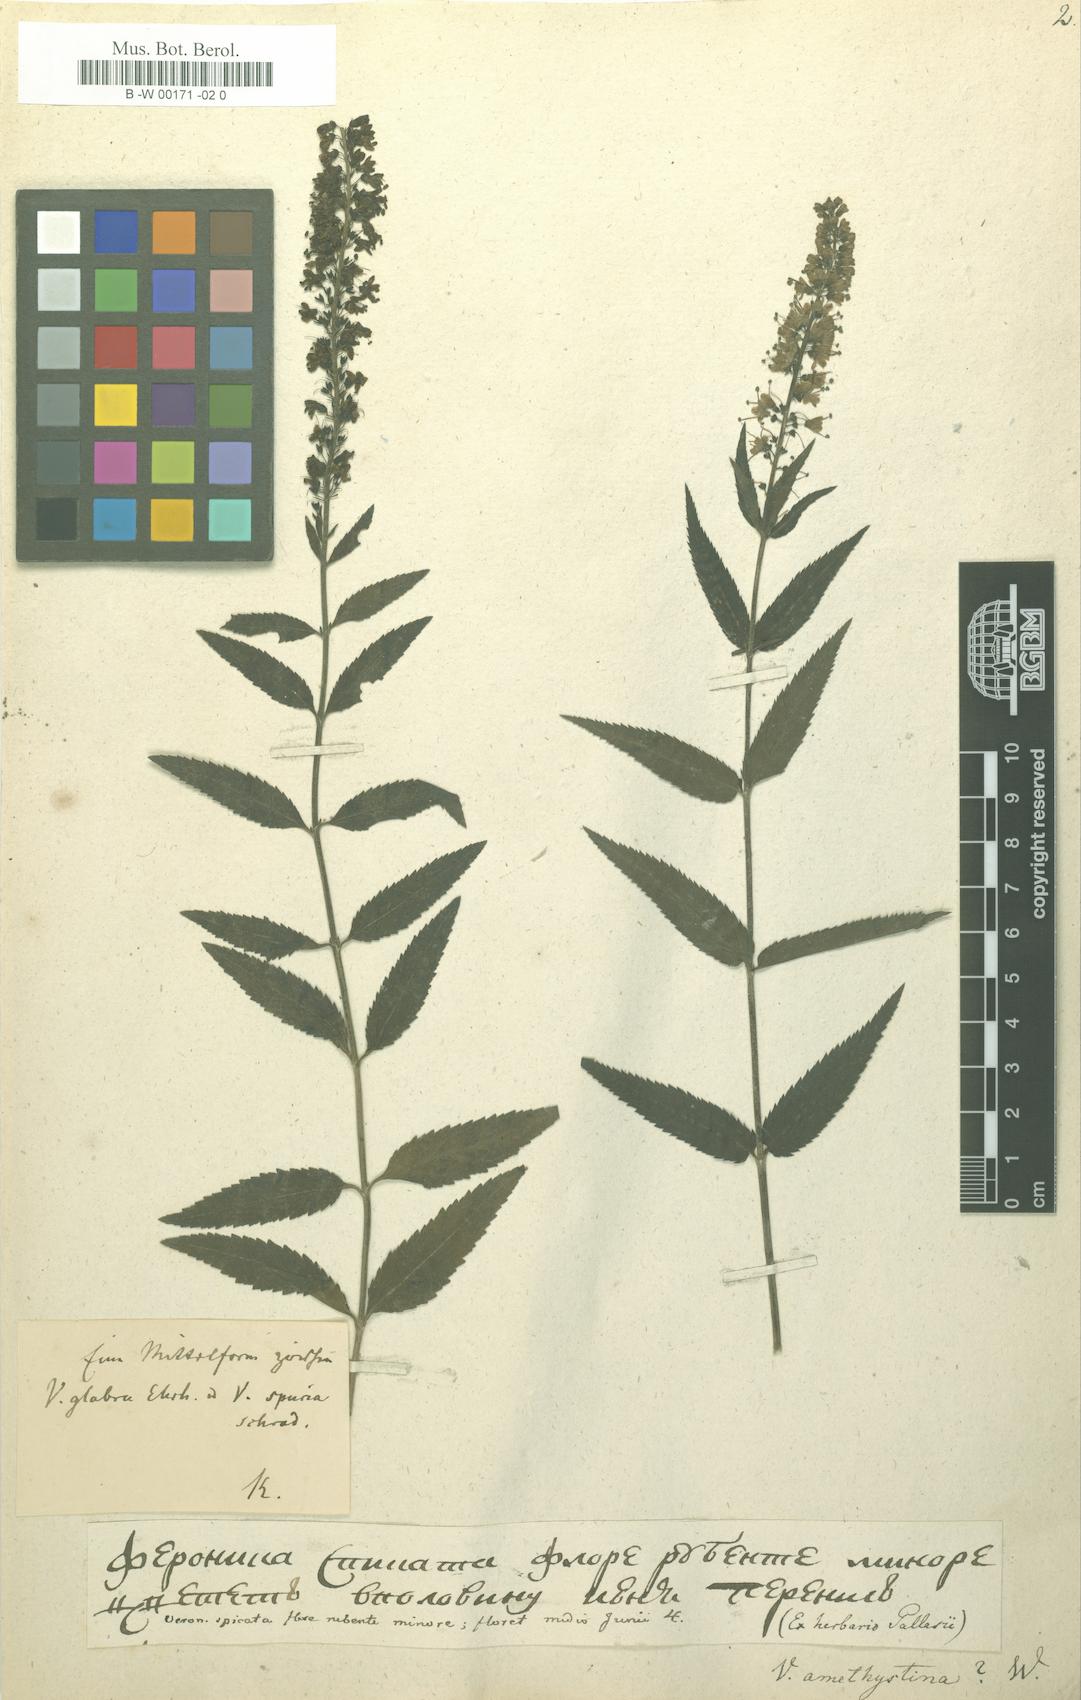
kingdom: Plantae
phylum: Tracheophyta
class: Magnoliopsida
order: Lamiales
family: Plantaginaceae
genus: Veronica
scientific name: Veronica spuria
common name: Bastard speedwell
